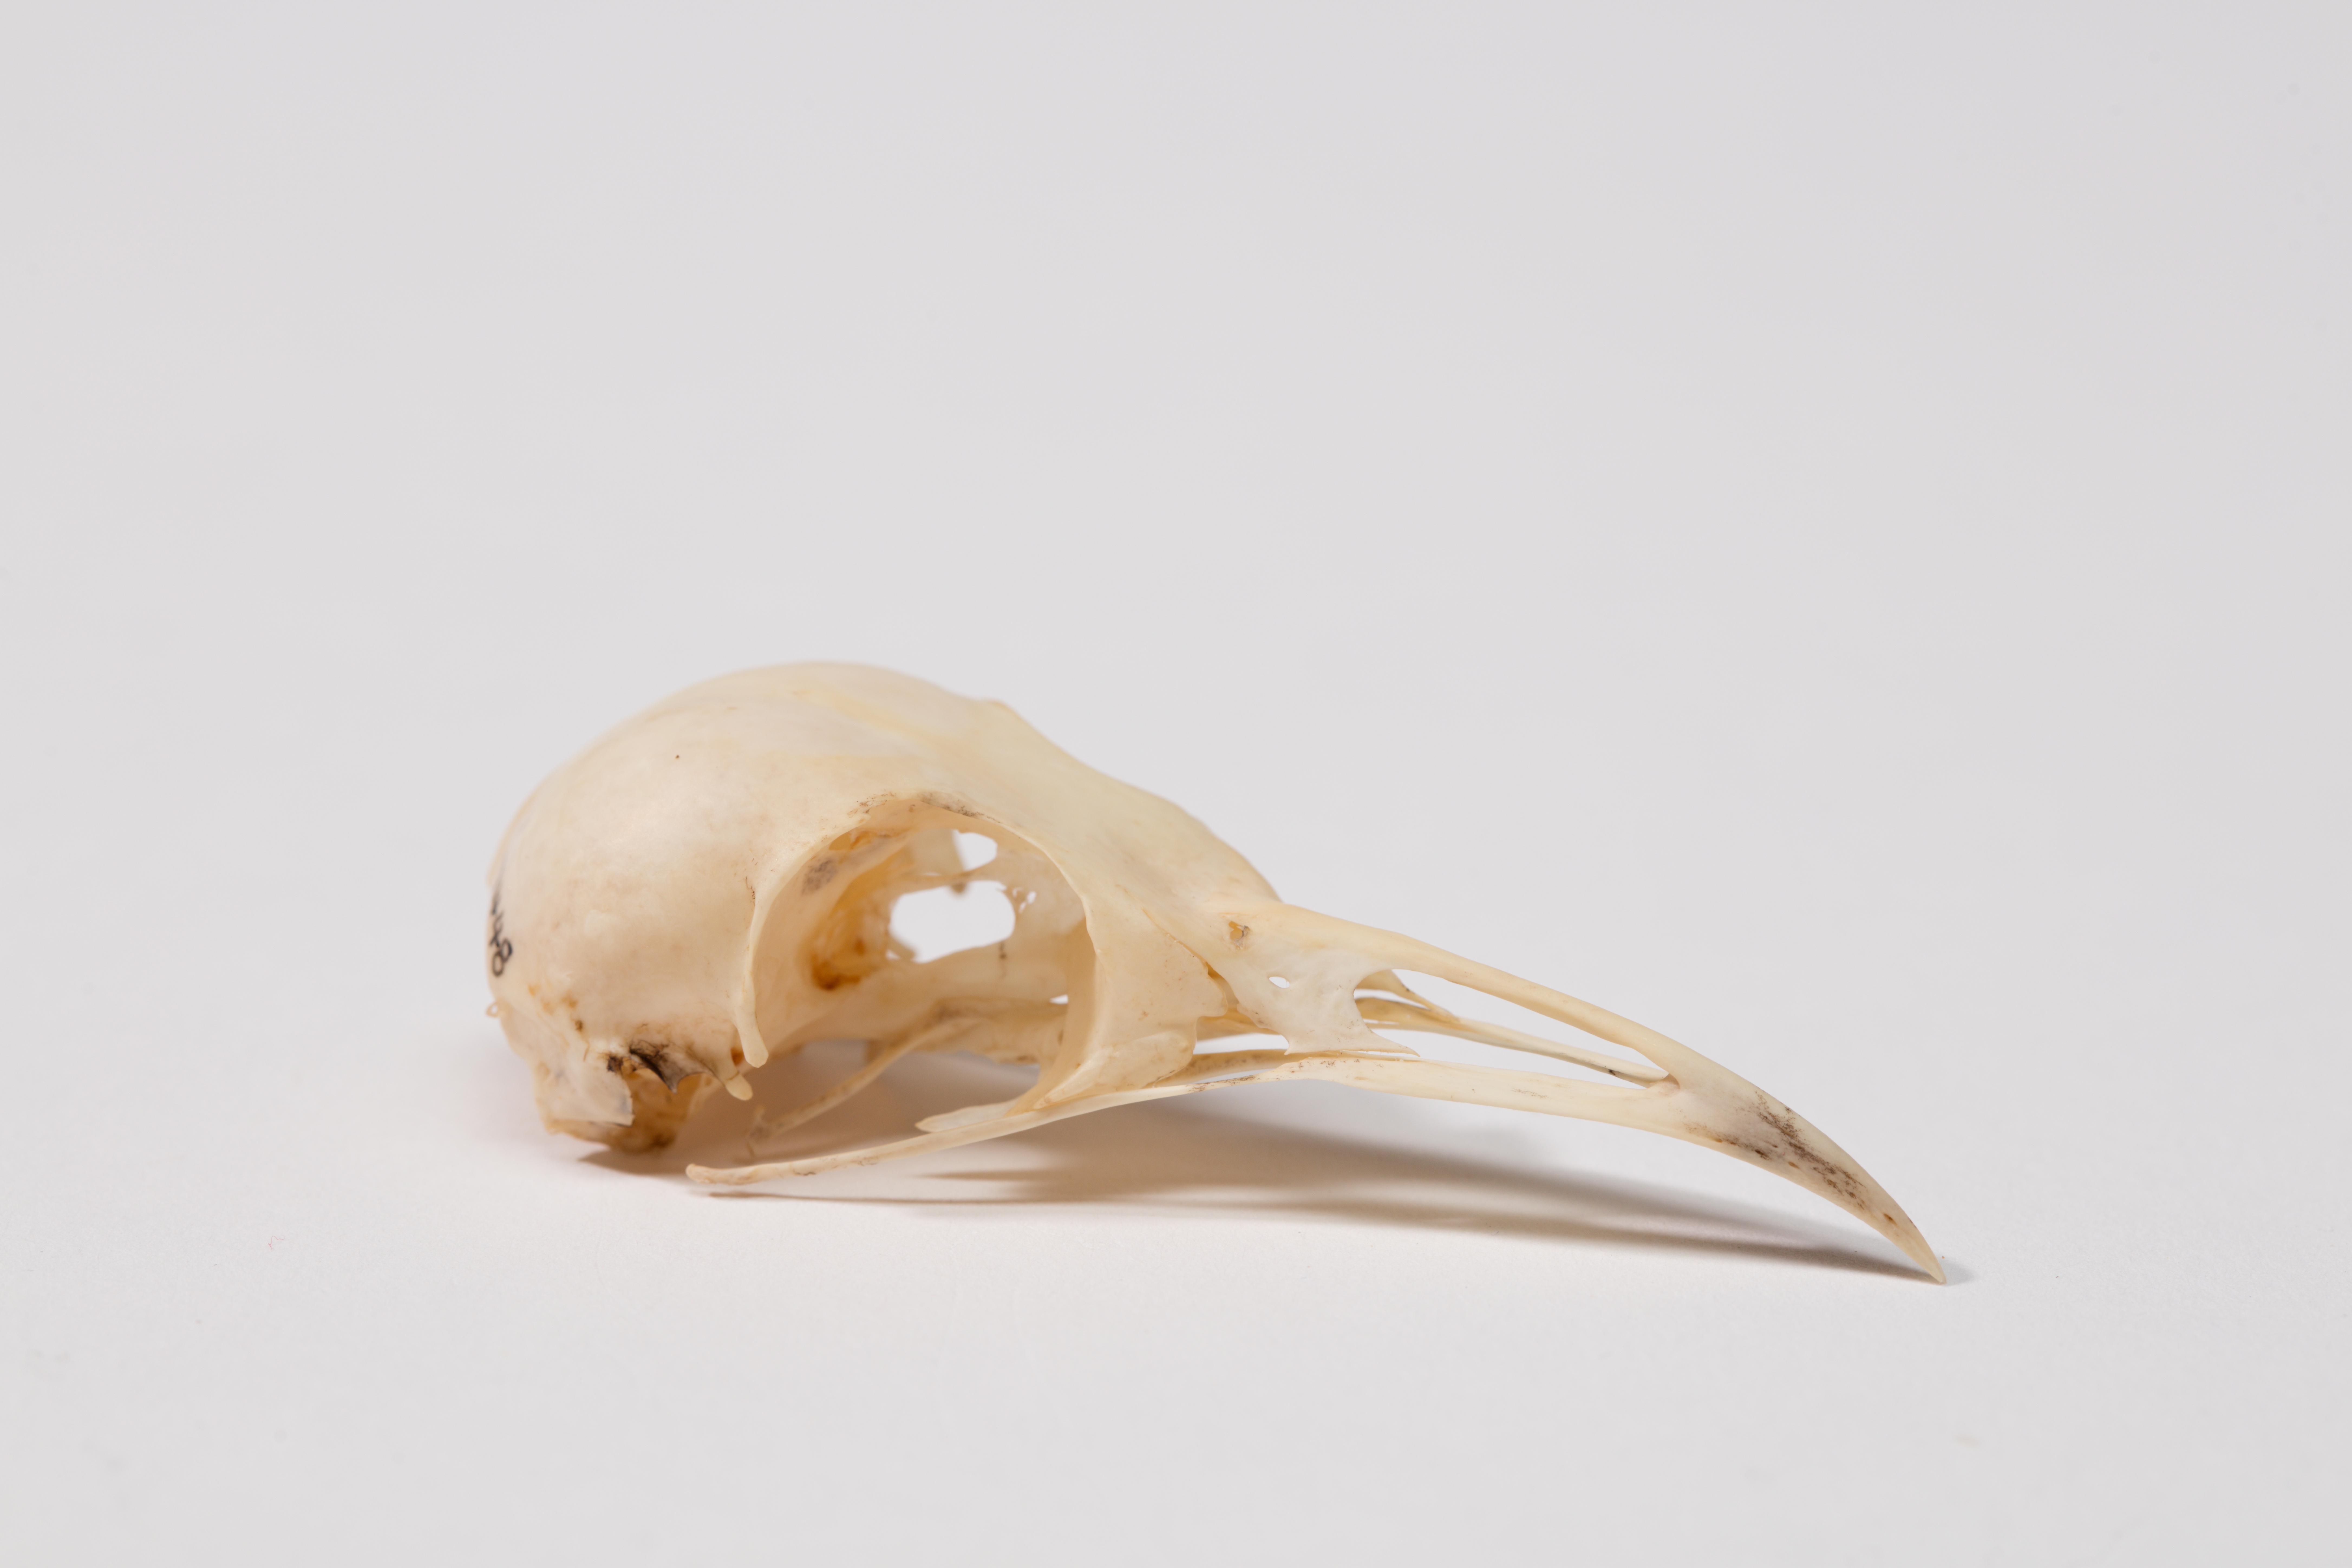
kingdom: Animalia
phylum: Chordata
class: Aves
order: Passeriformes
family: Meliphagidae
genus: Prosthemadera
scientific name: Prosthemadera novaeseelandiae
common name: Tui
